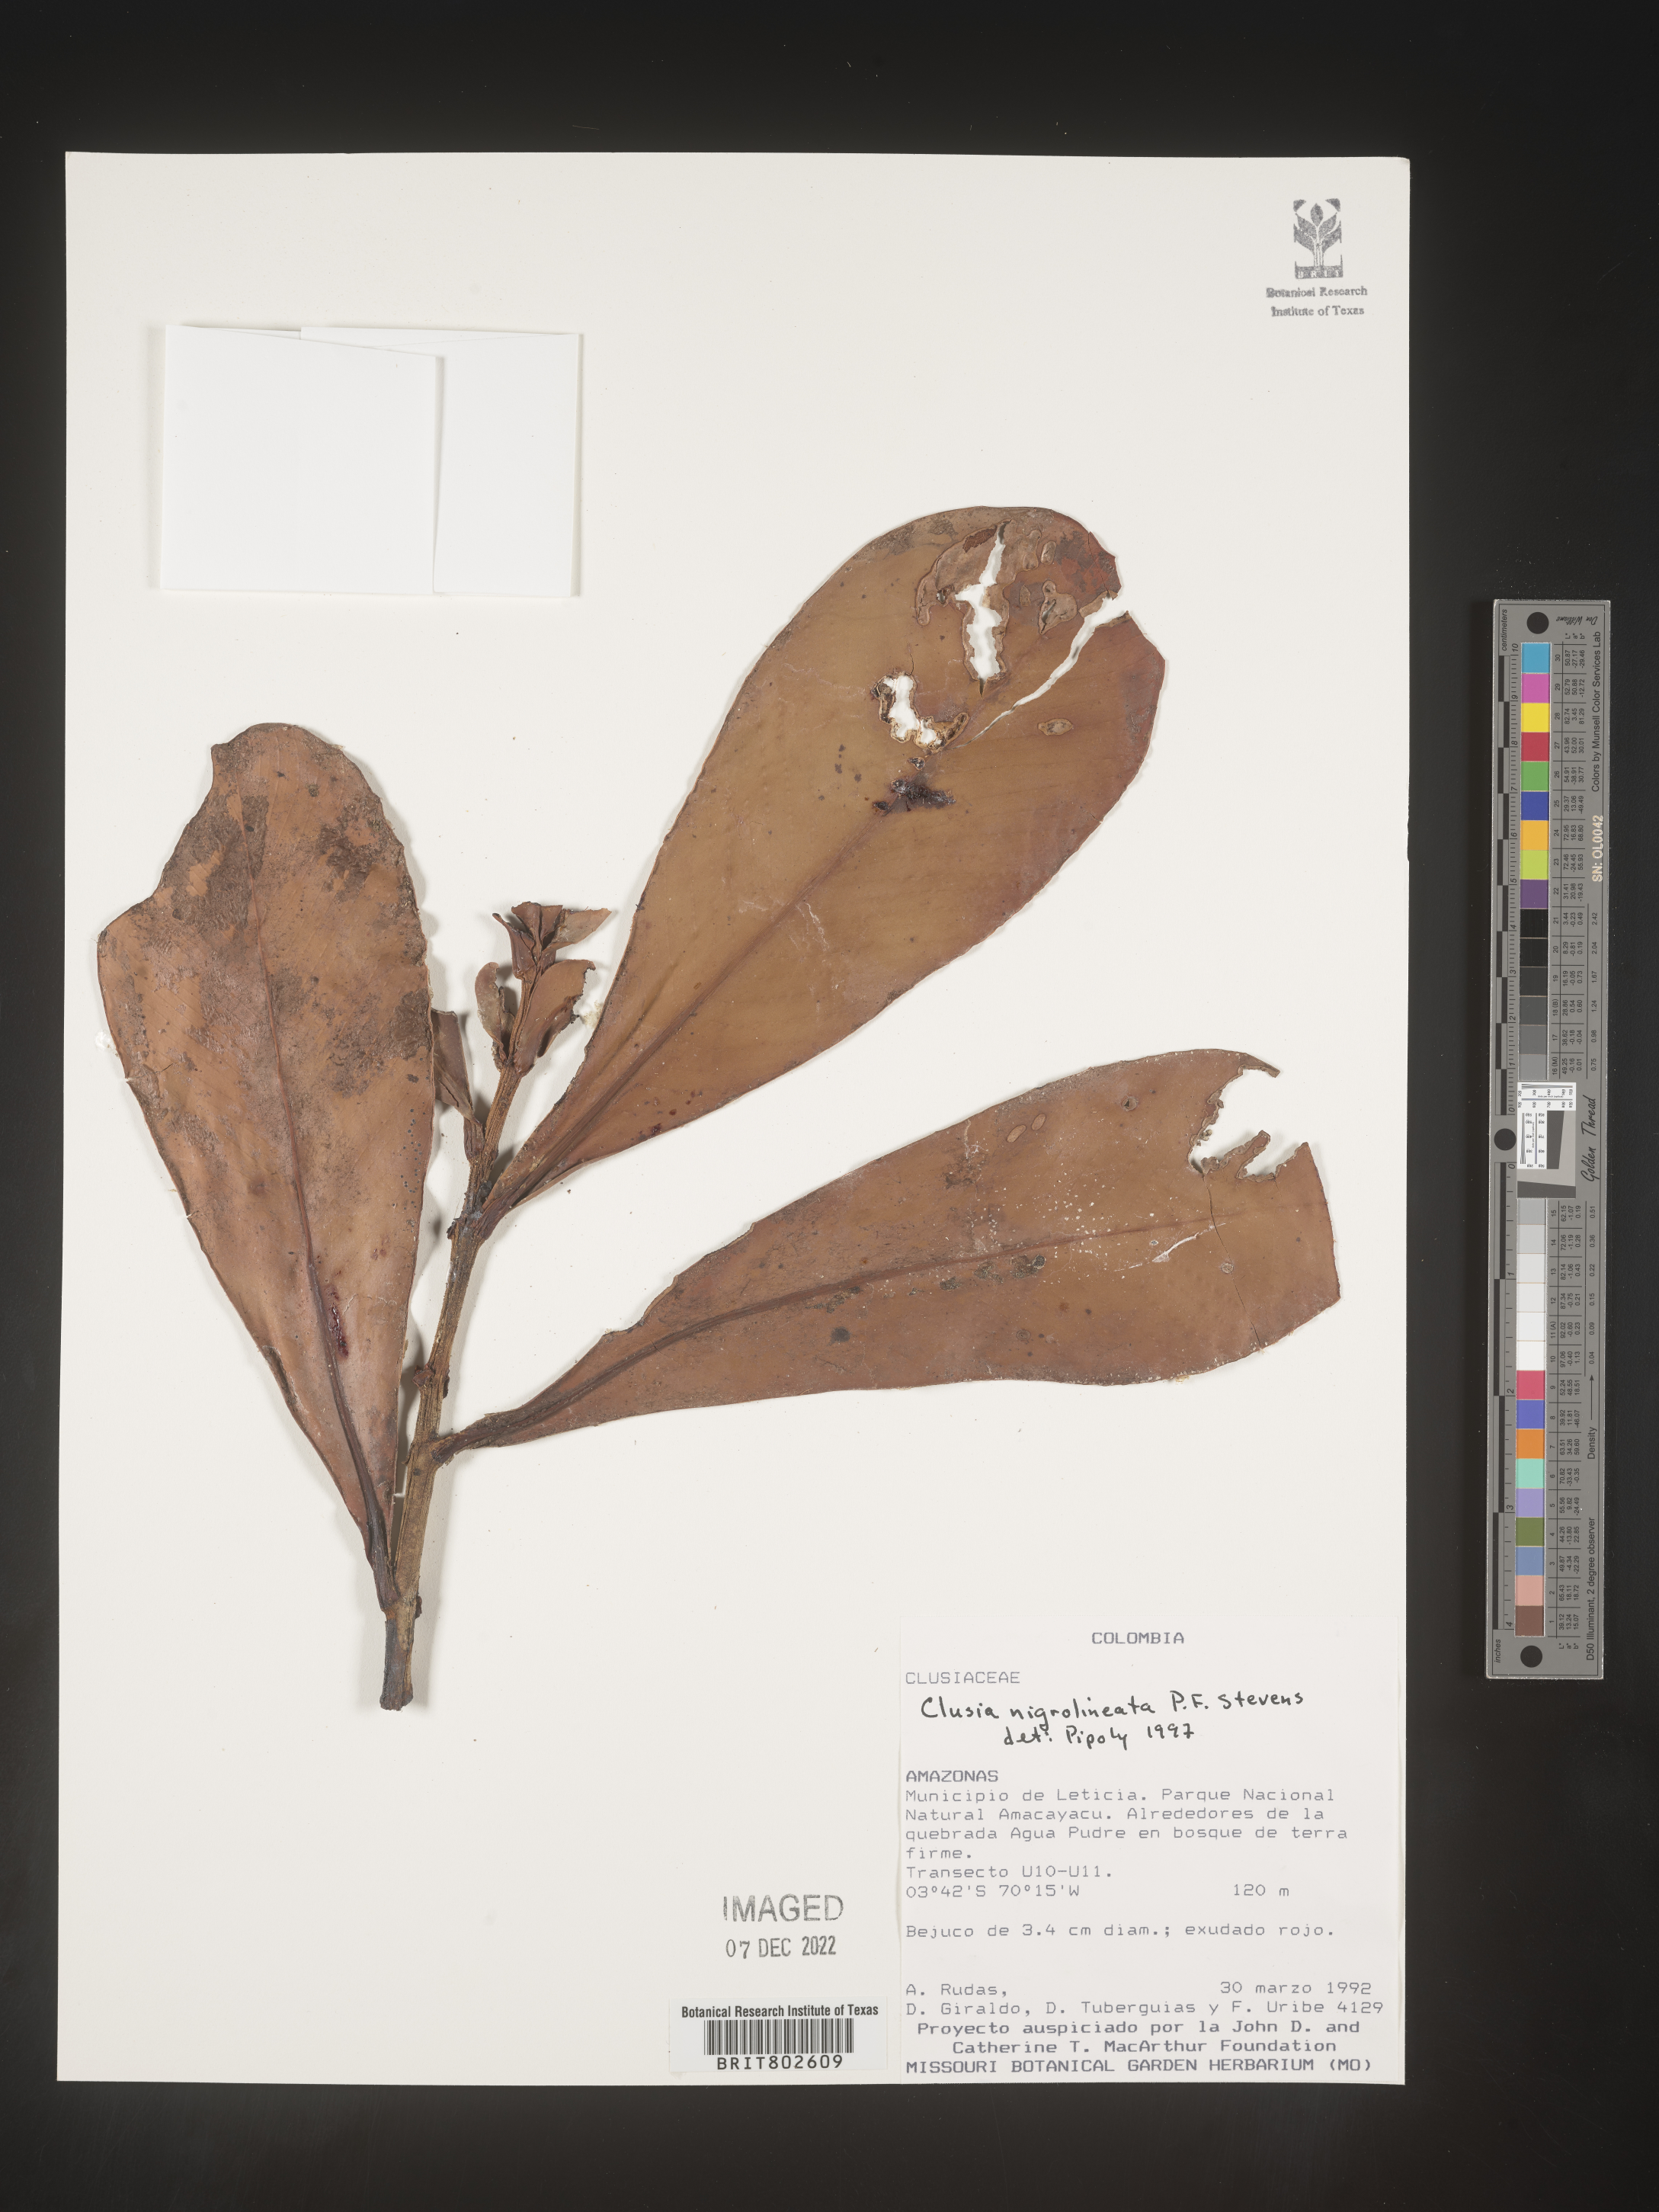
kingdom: Plantae
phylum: Tracheophyta
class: Magnoliopsida
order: Malpighiales
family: Clusiaceae
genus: Clusia
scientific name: Clusia nigrolineata
